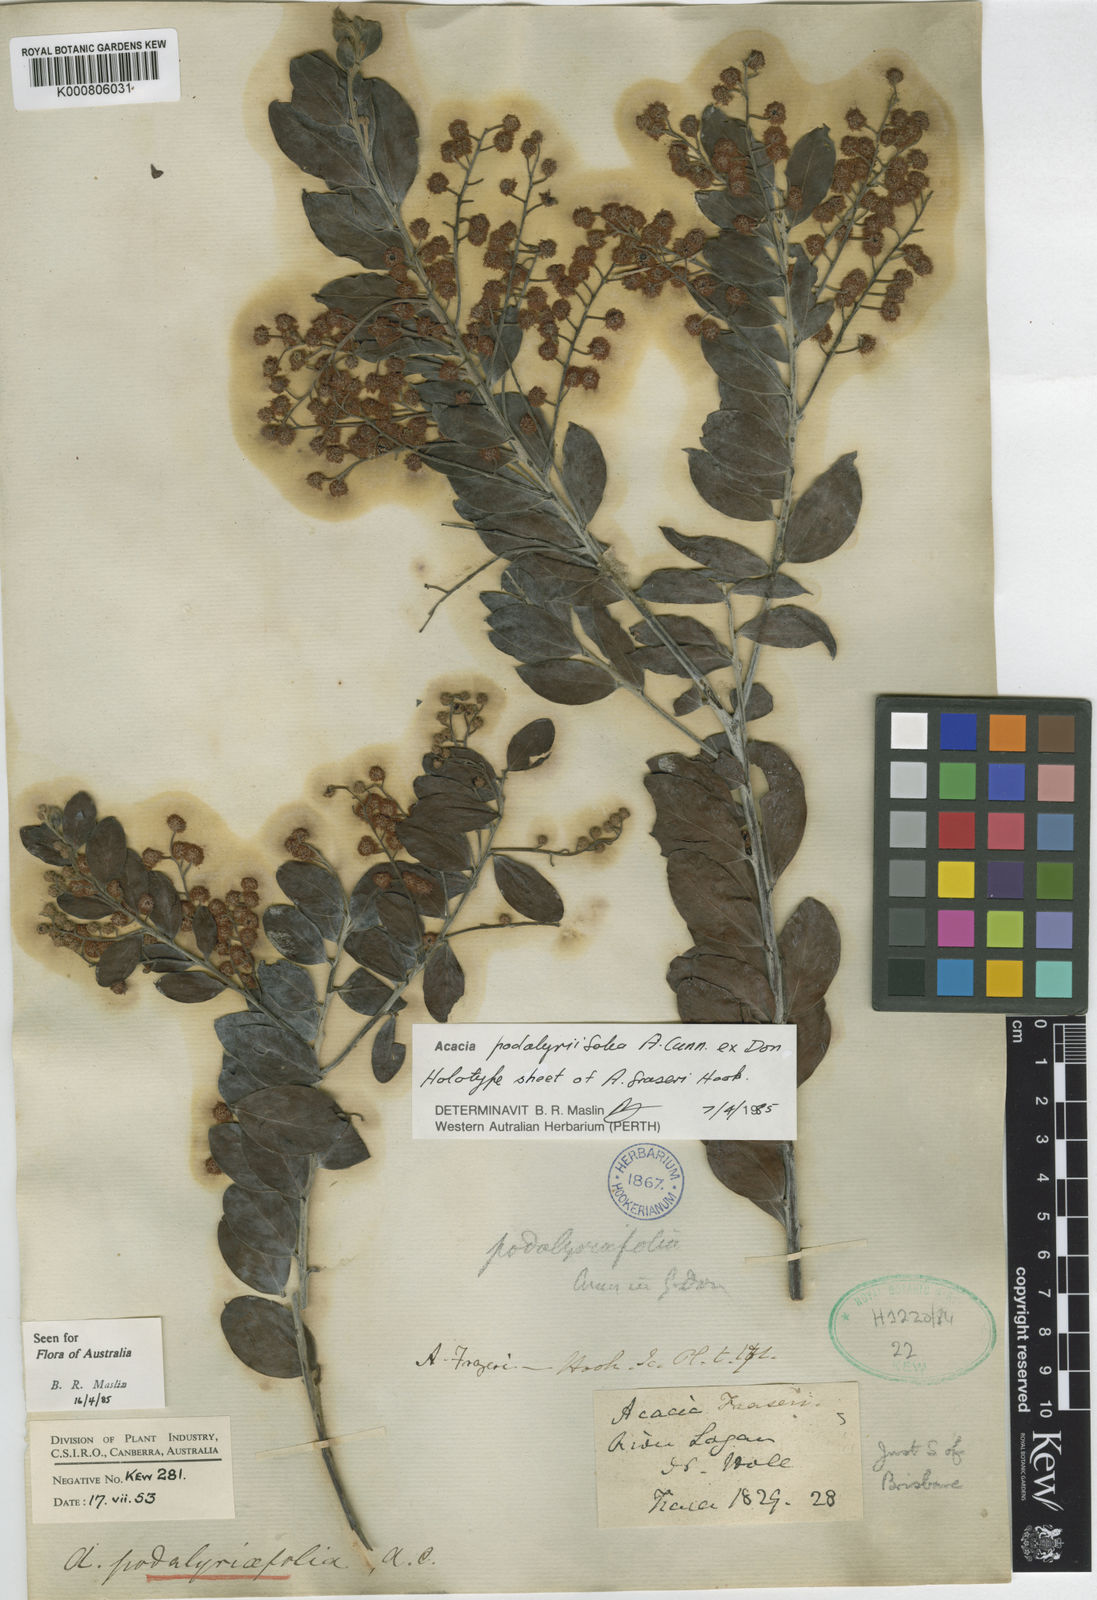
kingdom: Plantae
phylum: Tracheophyta
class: Magnoliopsida
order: Fabales
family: Fabaceae
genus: Acacia
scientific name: Acacia podalyriifolia
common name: Pearl wattle
